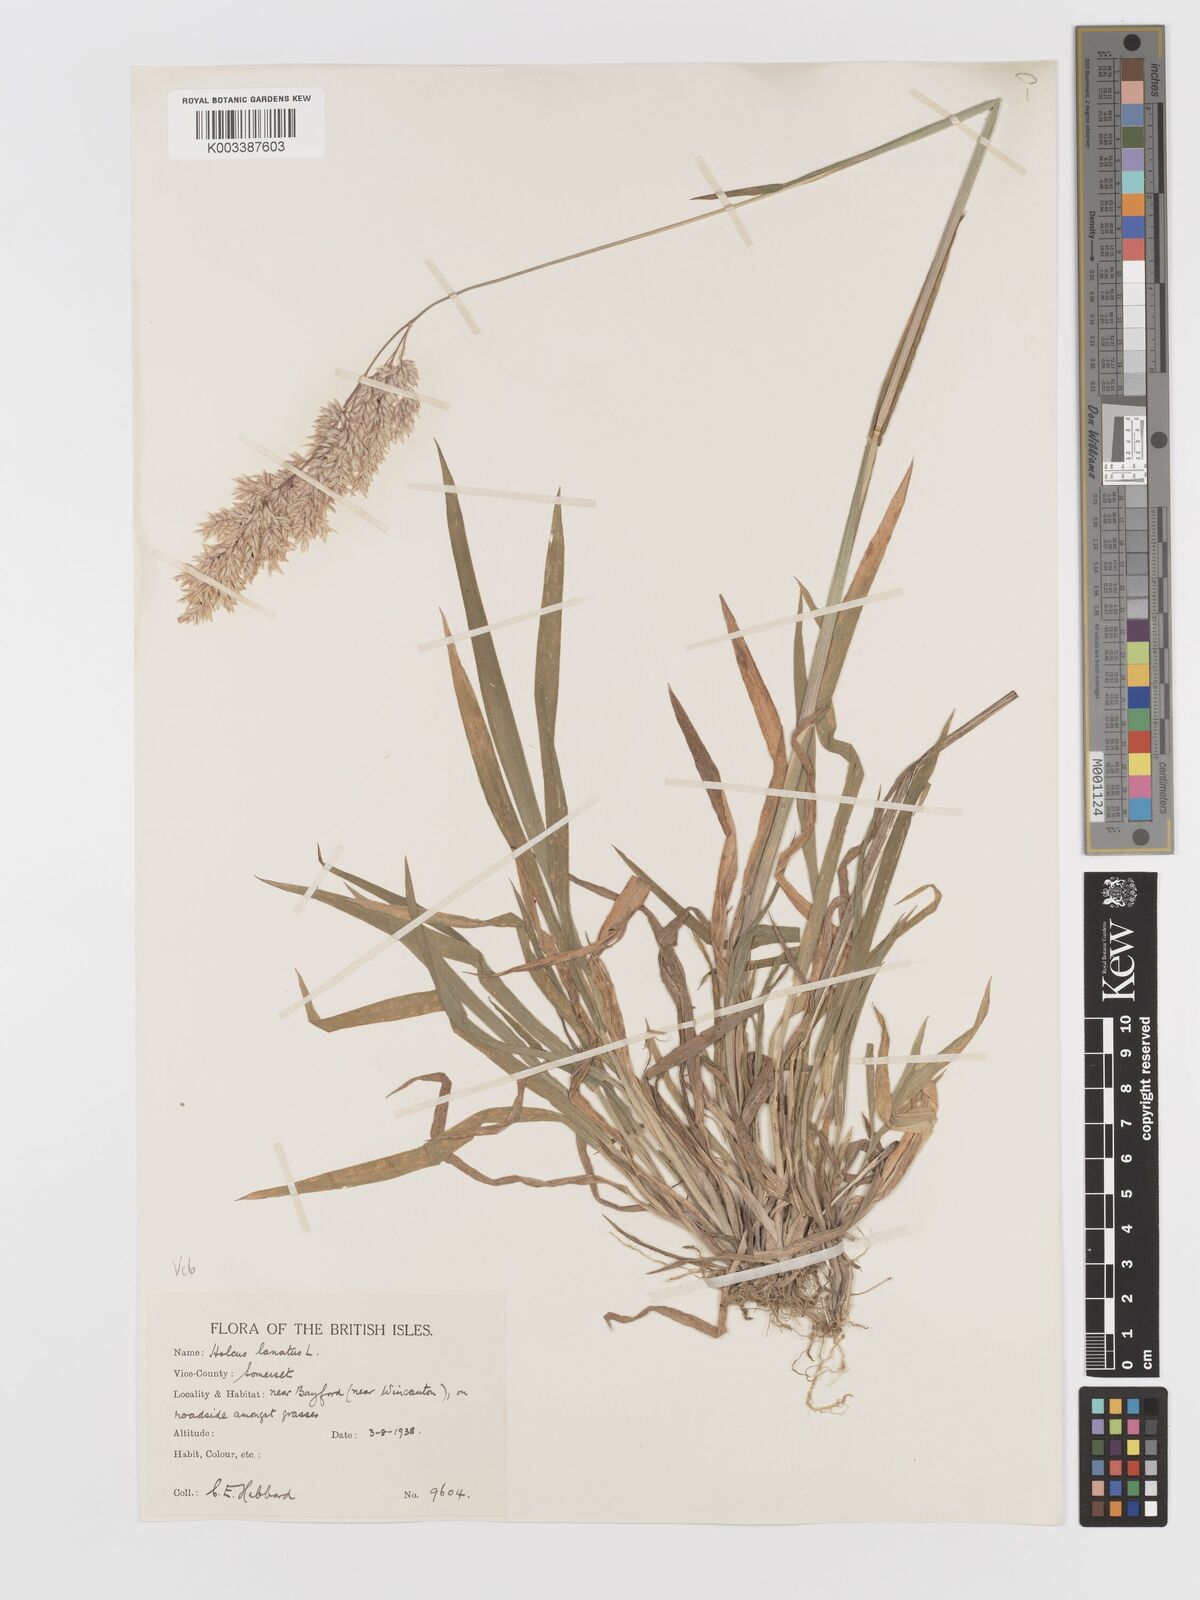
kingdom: Plantae
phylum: Tracheophyta
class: Liliopsida
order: Poales
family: Poaceae
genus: Holcus
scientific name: Holcus lanatus
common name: Yorkshire-fog
